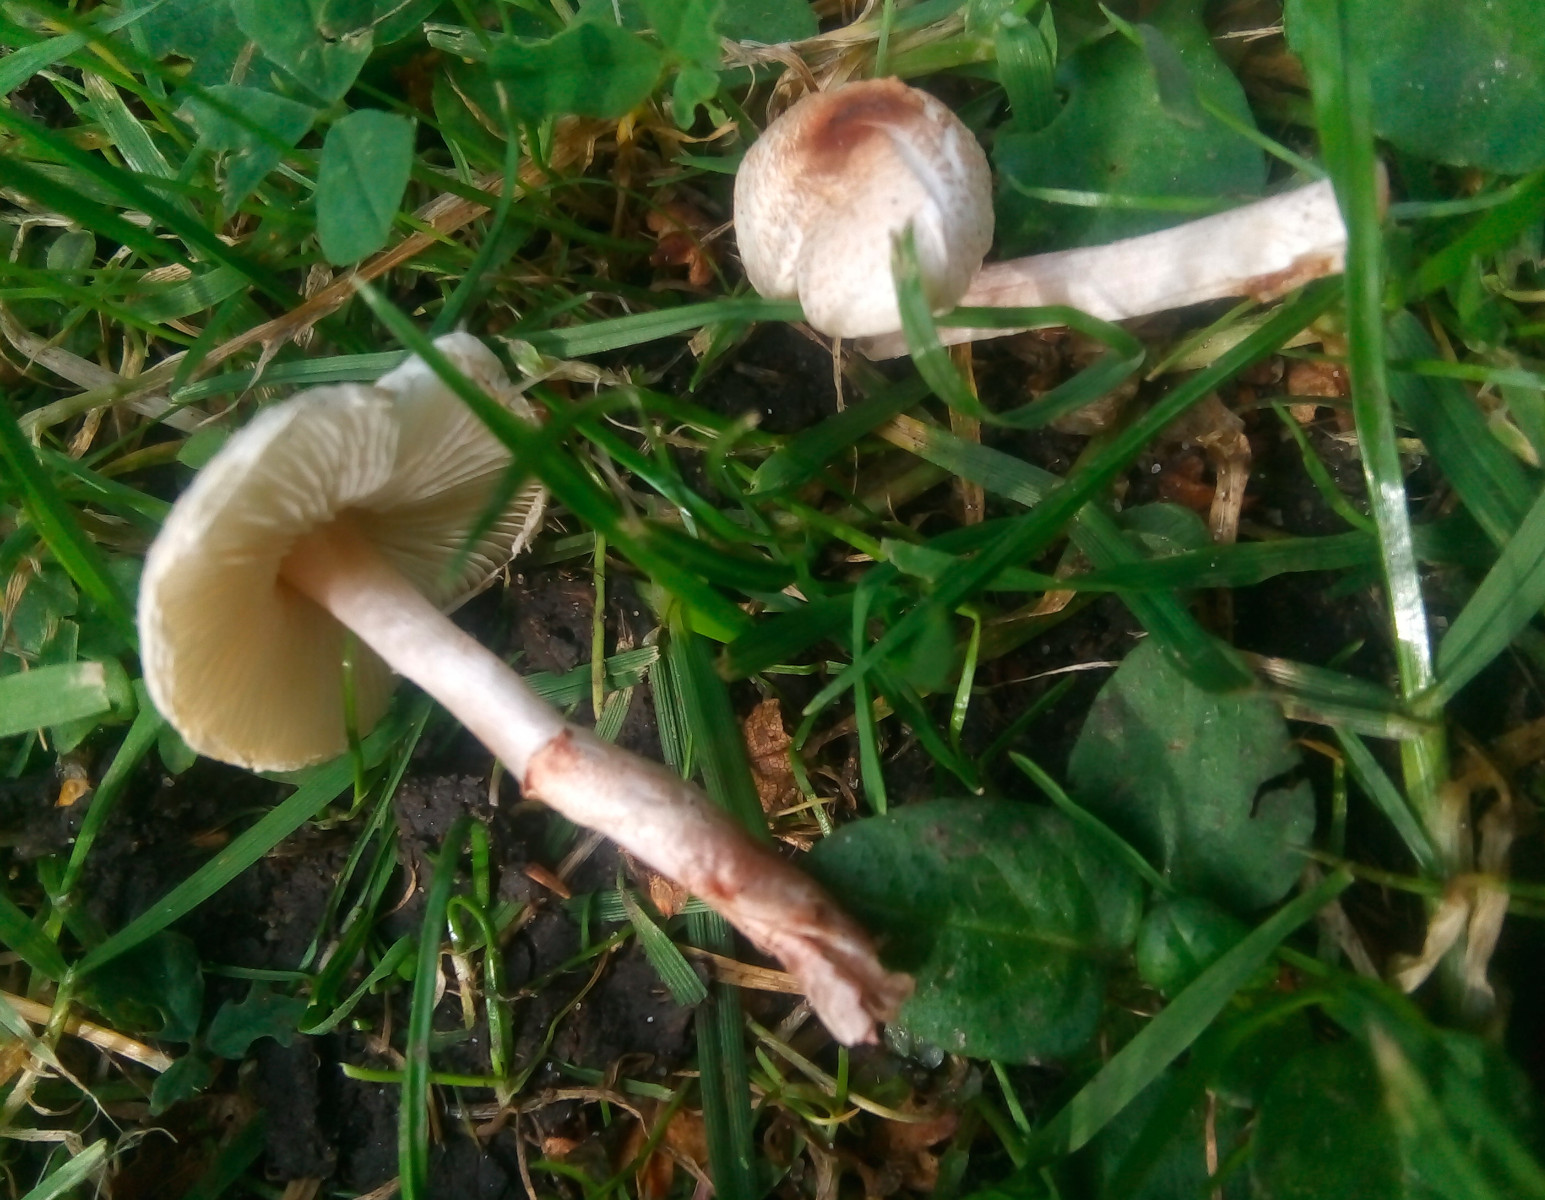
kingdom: Fungi
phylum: Basidiomycota
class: Agaricomycetes
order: Agaricales
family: Agaricaceae
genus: Lepiota
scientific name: Lepiota cristata
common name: stinkende parasolhat
